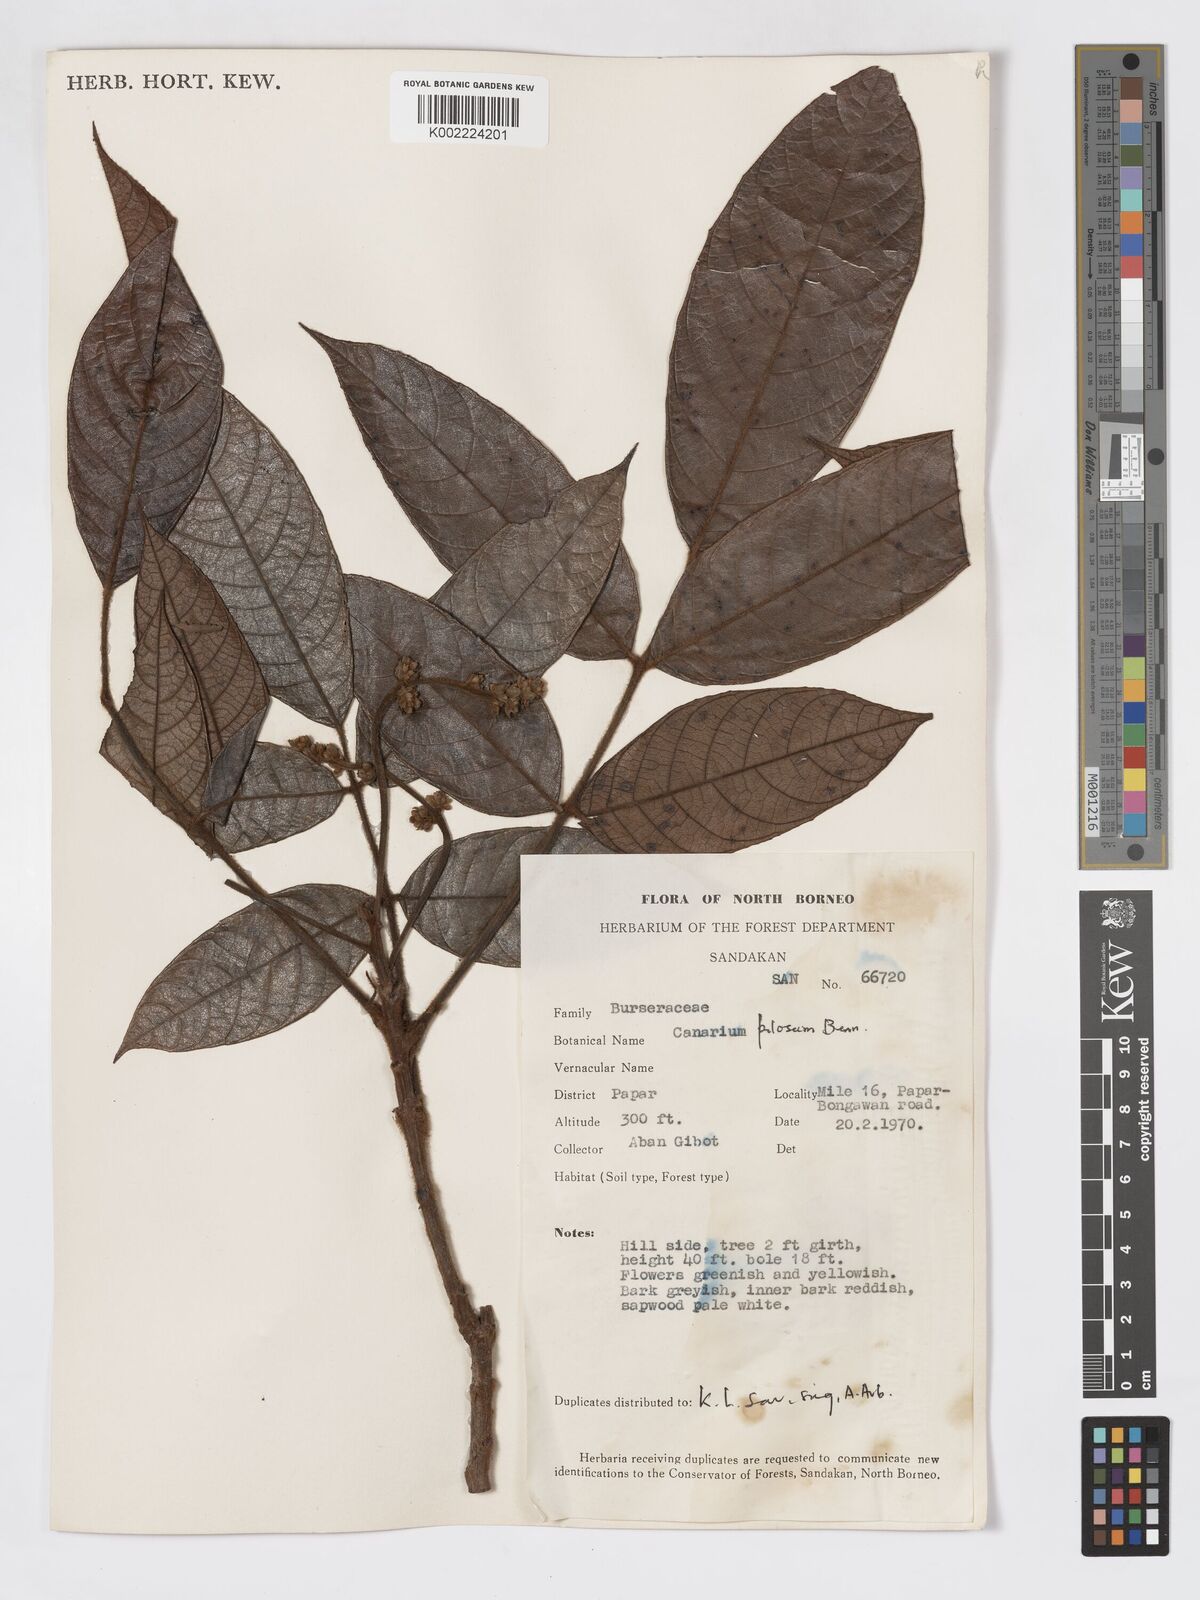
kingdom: Plantae
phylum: Tracheophyta
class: Magnoliopsida
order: Sapindales
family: Burseraceae
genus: Canarium
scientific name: Canarium pilosum
